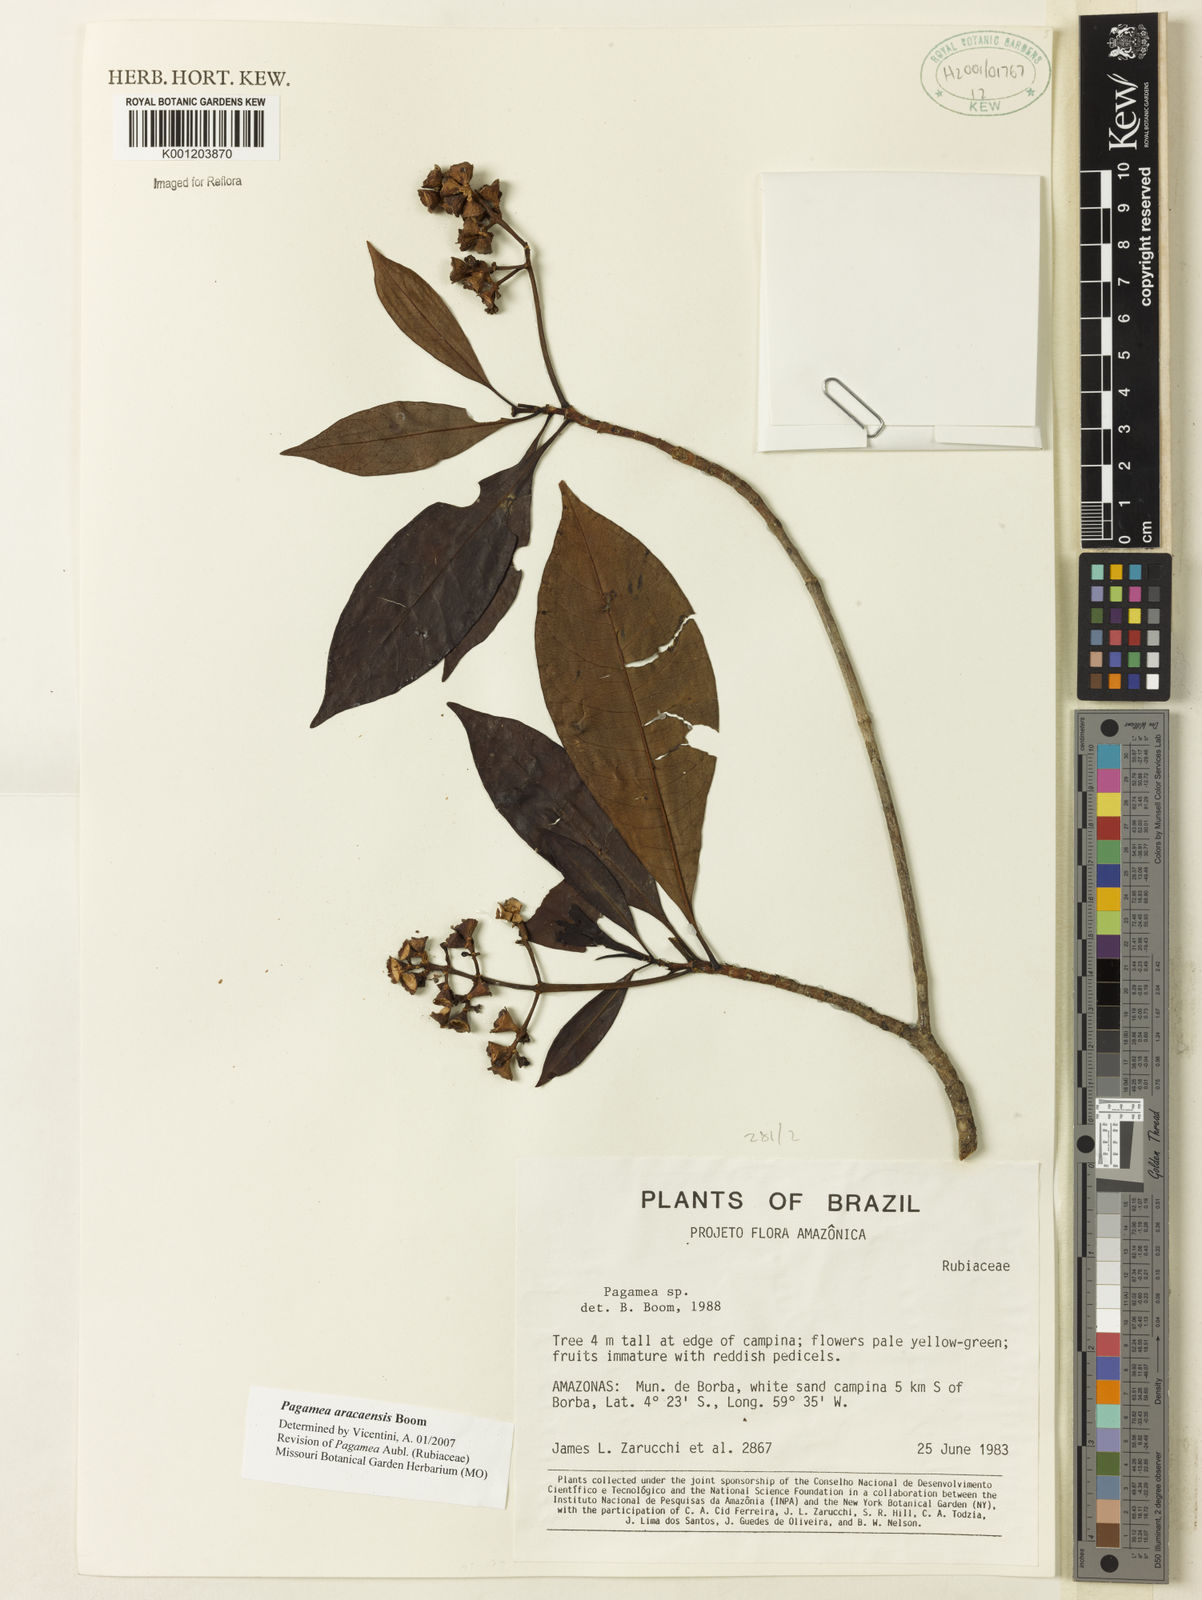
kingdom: Plantae
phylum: Tracheophyta
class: Magnoliopsida
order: Gentianales
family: Rubiaceae
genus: Pagamea
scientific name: Pagamea aracaensis
